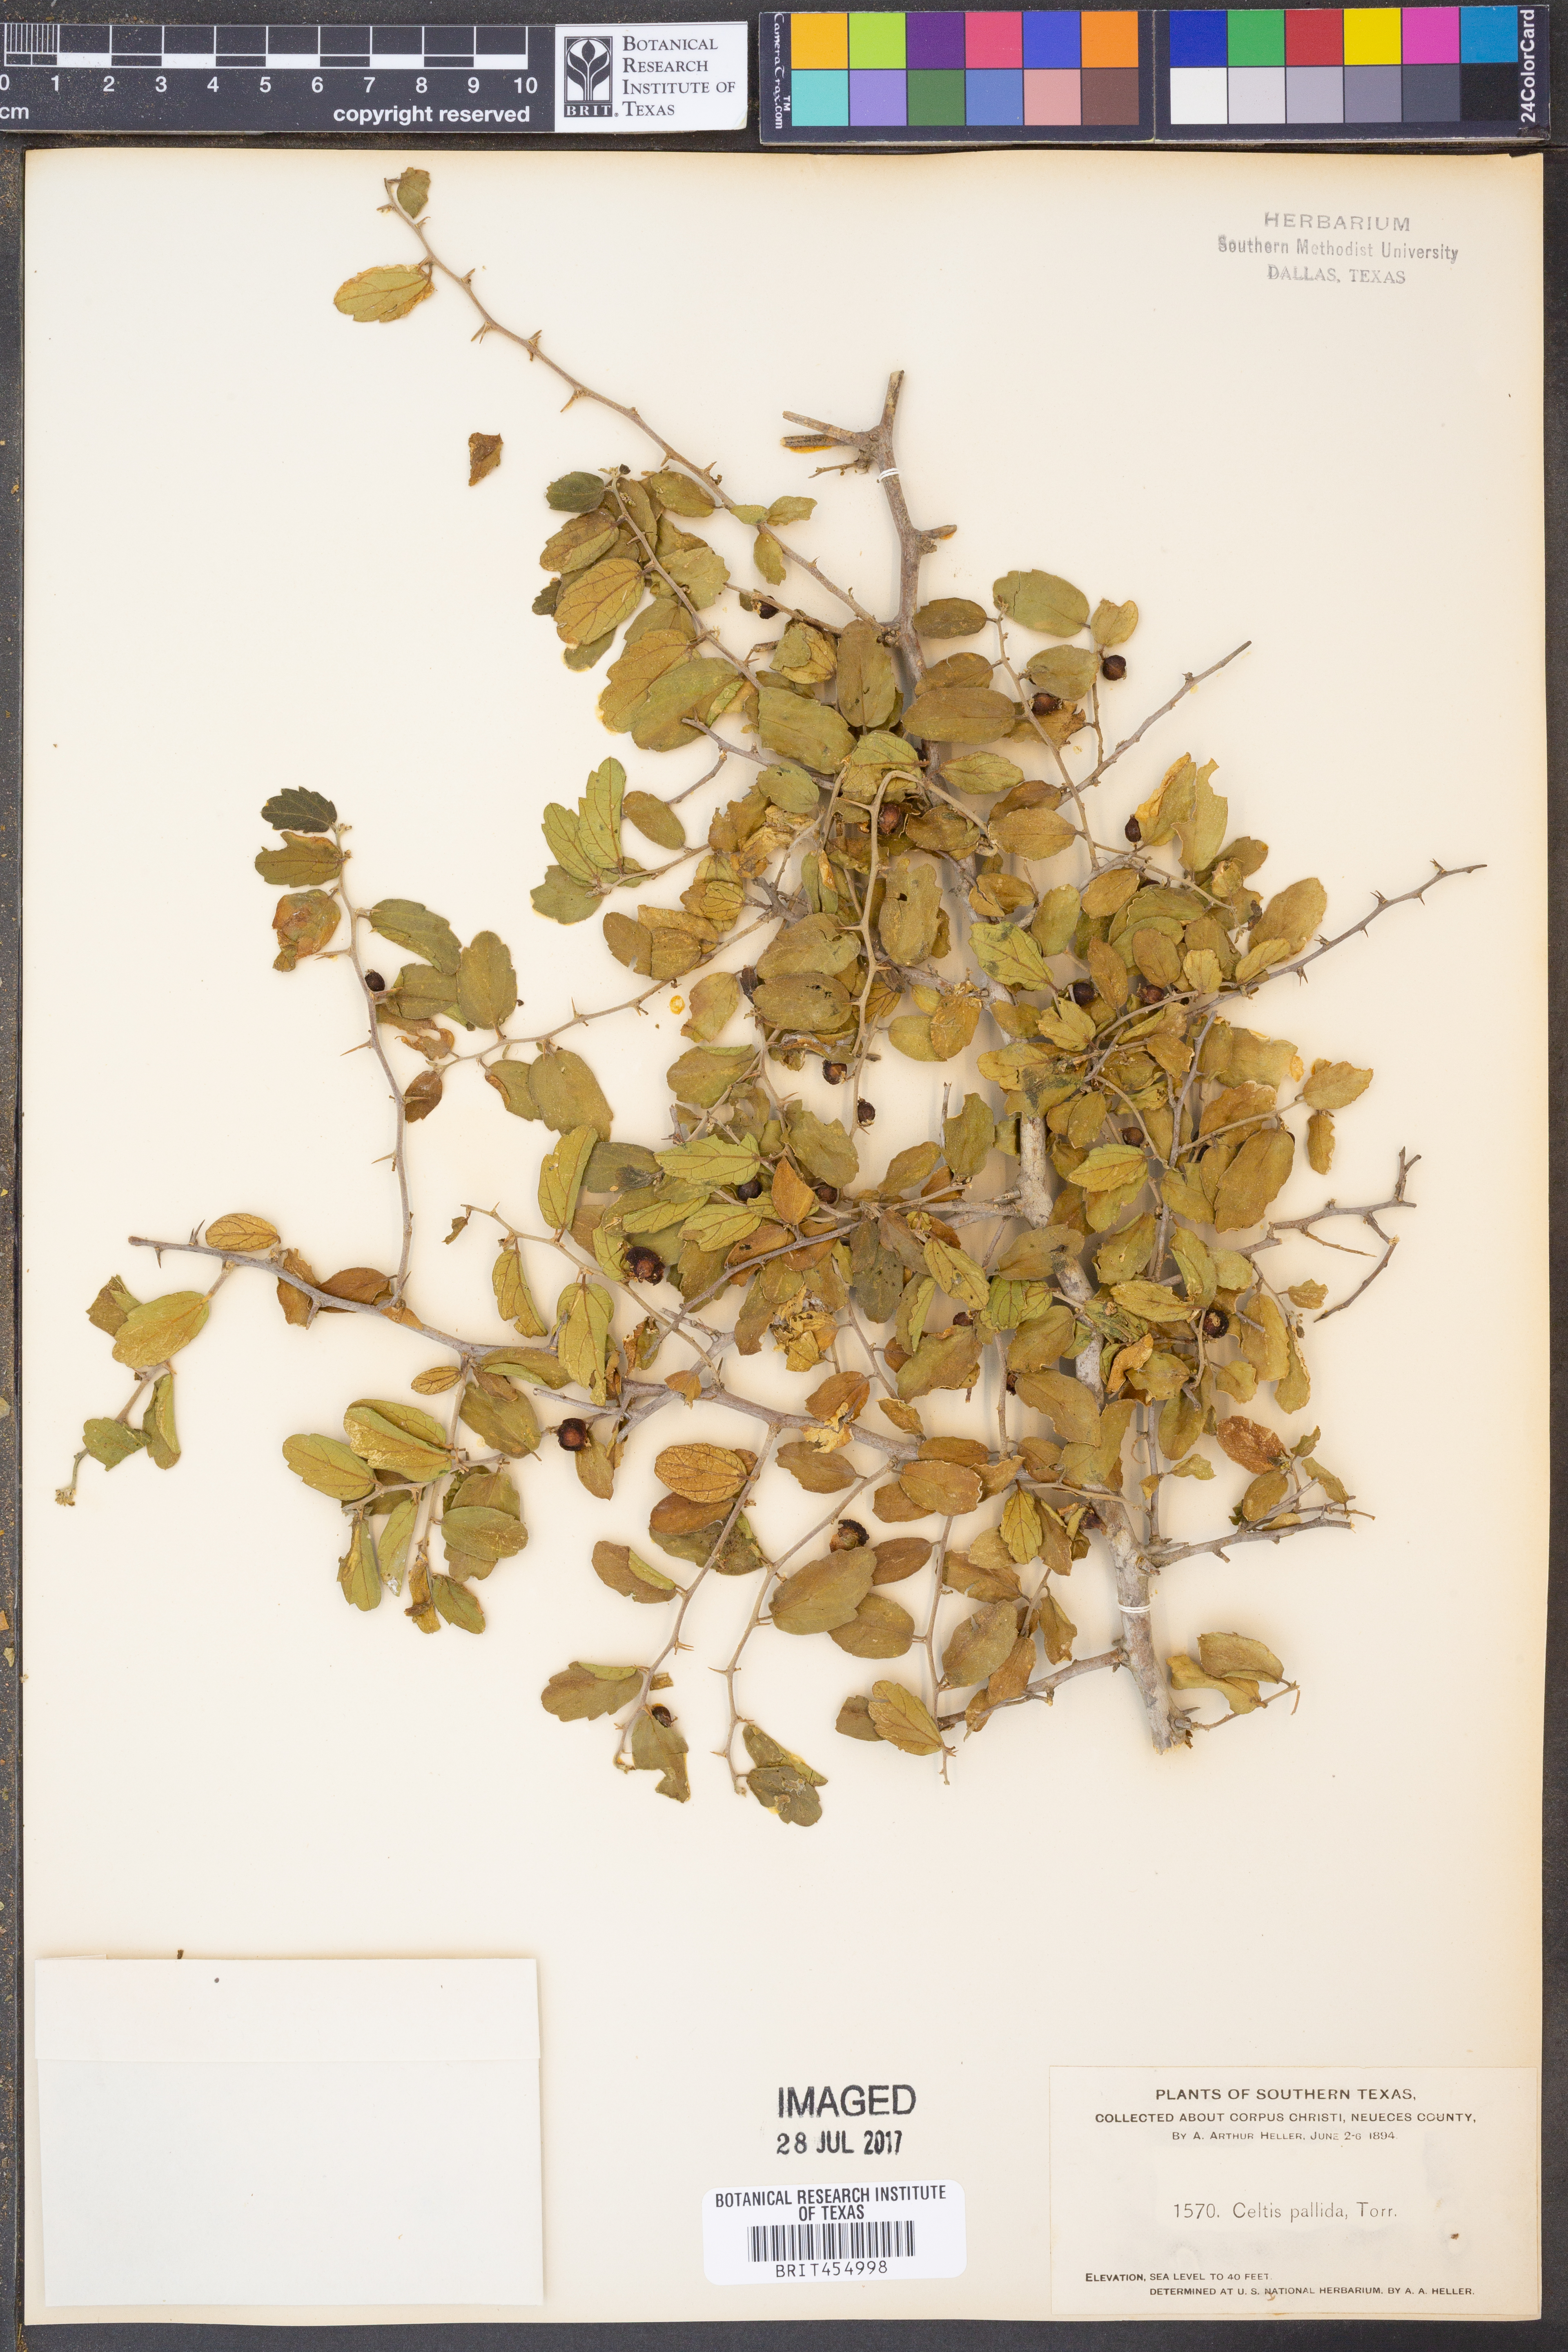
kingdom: Plantae
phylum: Tracheophyta
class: Magnoliopsida
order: Rosales
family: Cannabaceae
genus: Celtis
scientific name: Celtis pallida
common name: Desert hackberry
